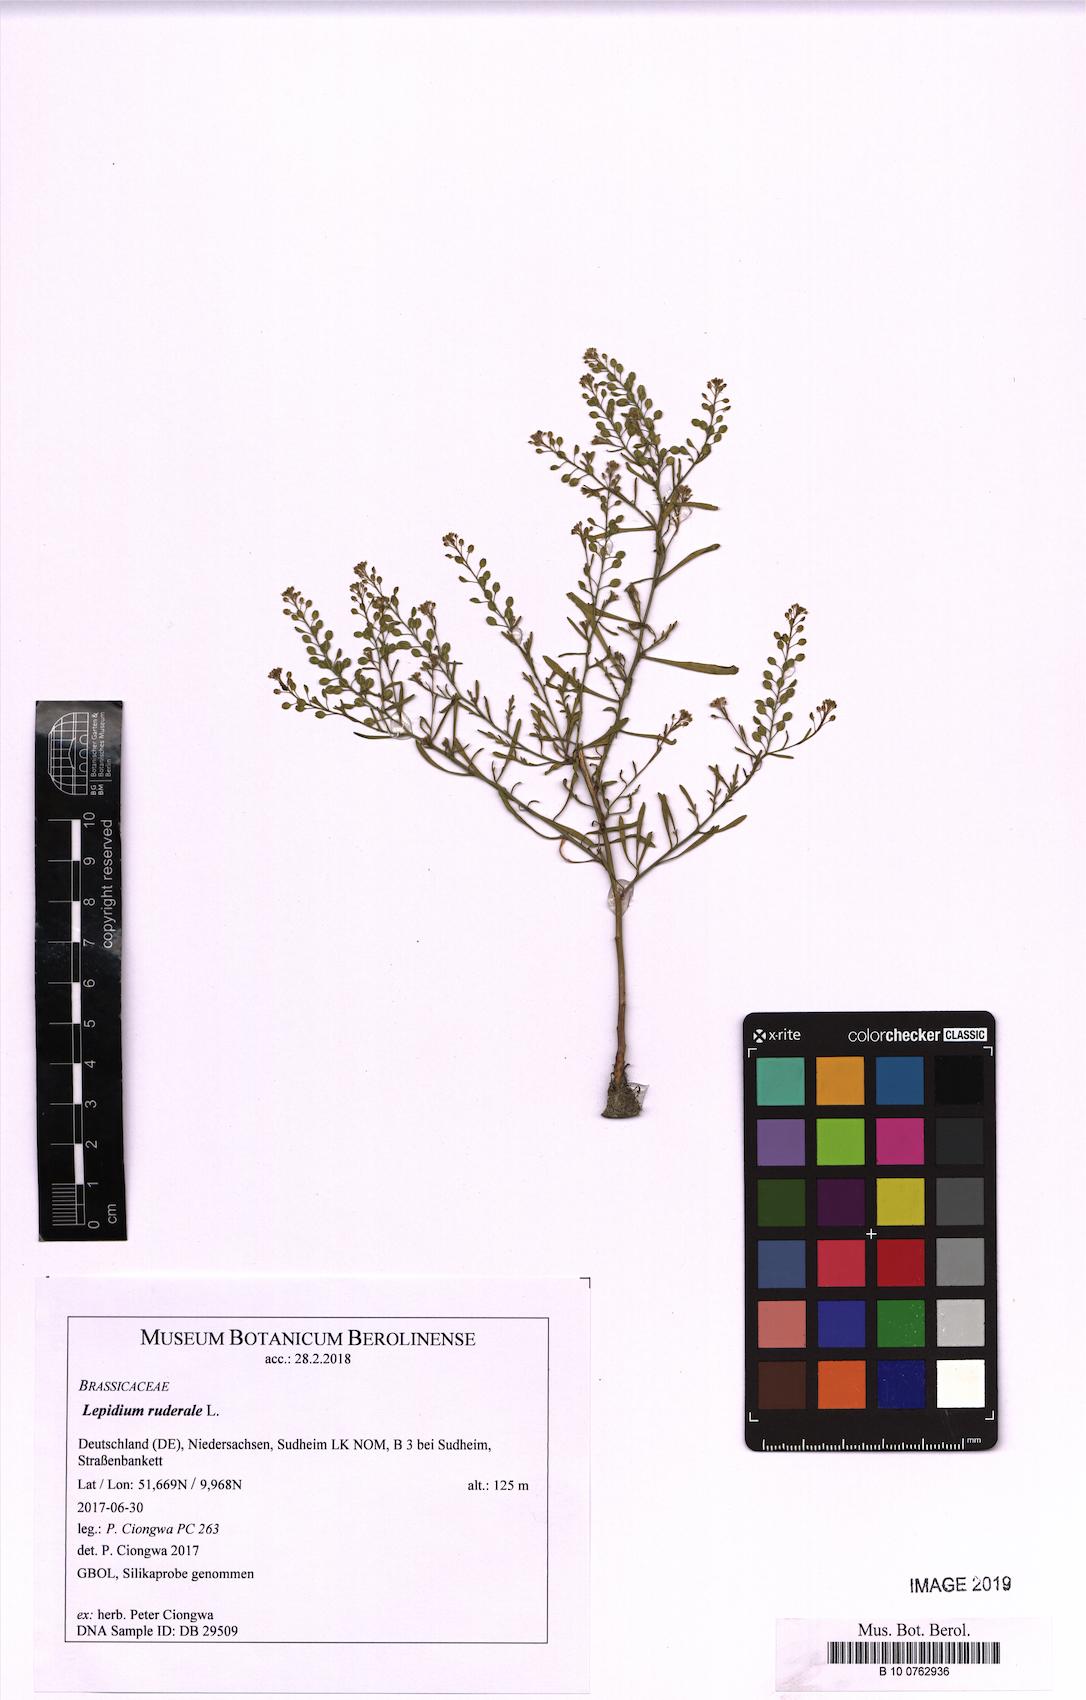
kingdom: Plantae
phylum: Tracheophyta
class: Magnoliopsida
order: Brassicales
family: Brassicaceae
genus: Lepidium
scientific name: Lepidium ruderale
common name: Narrow-leaved pepperwort
